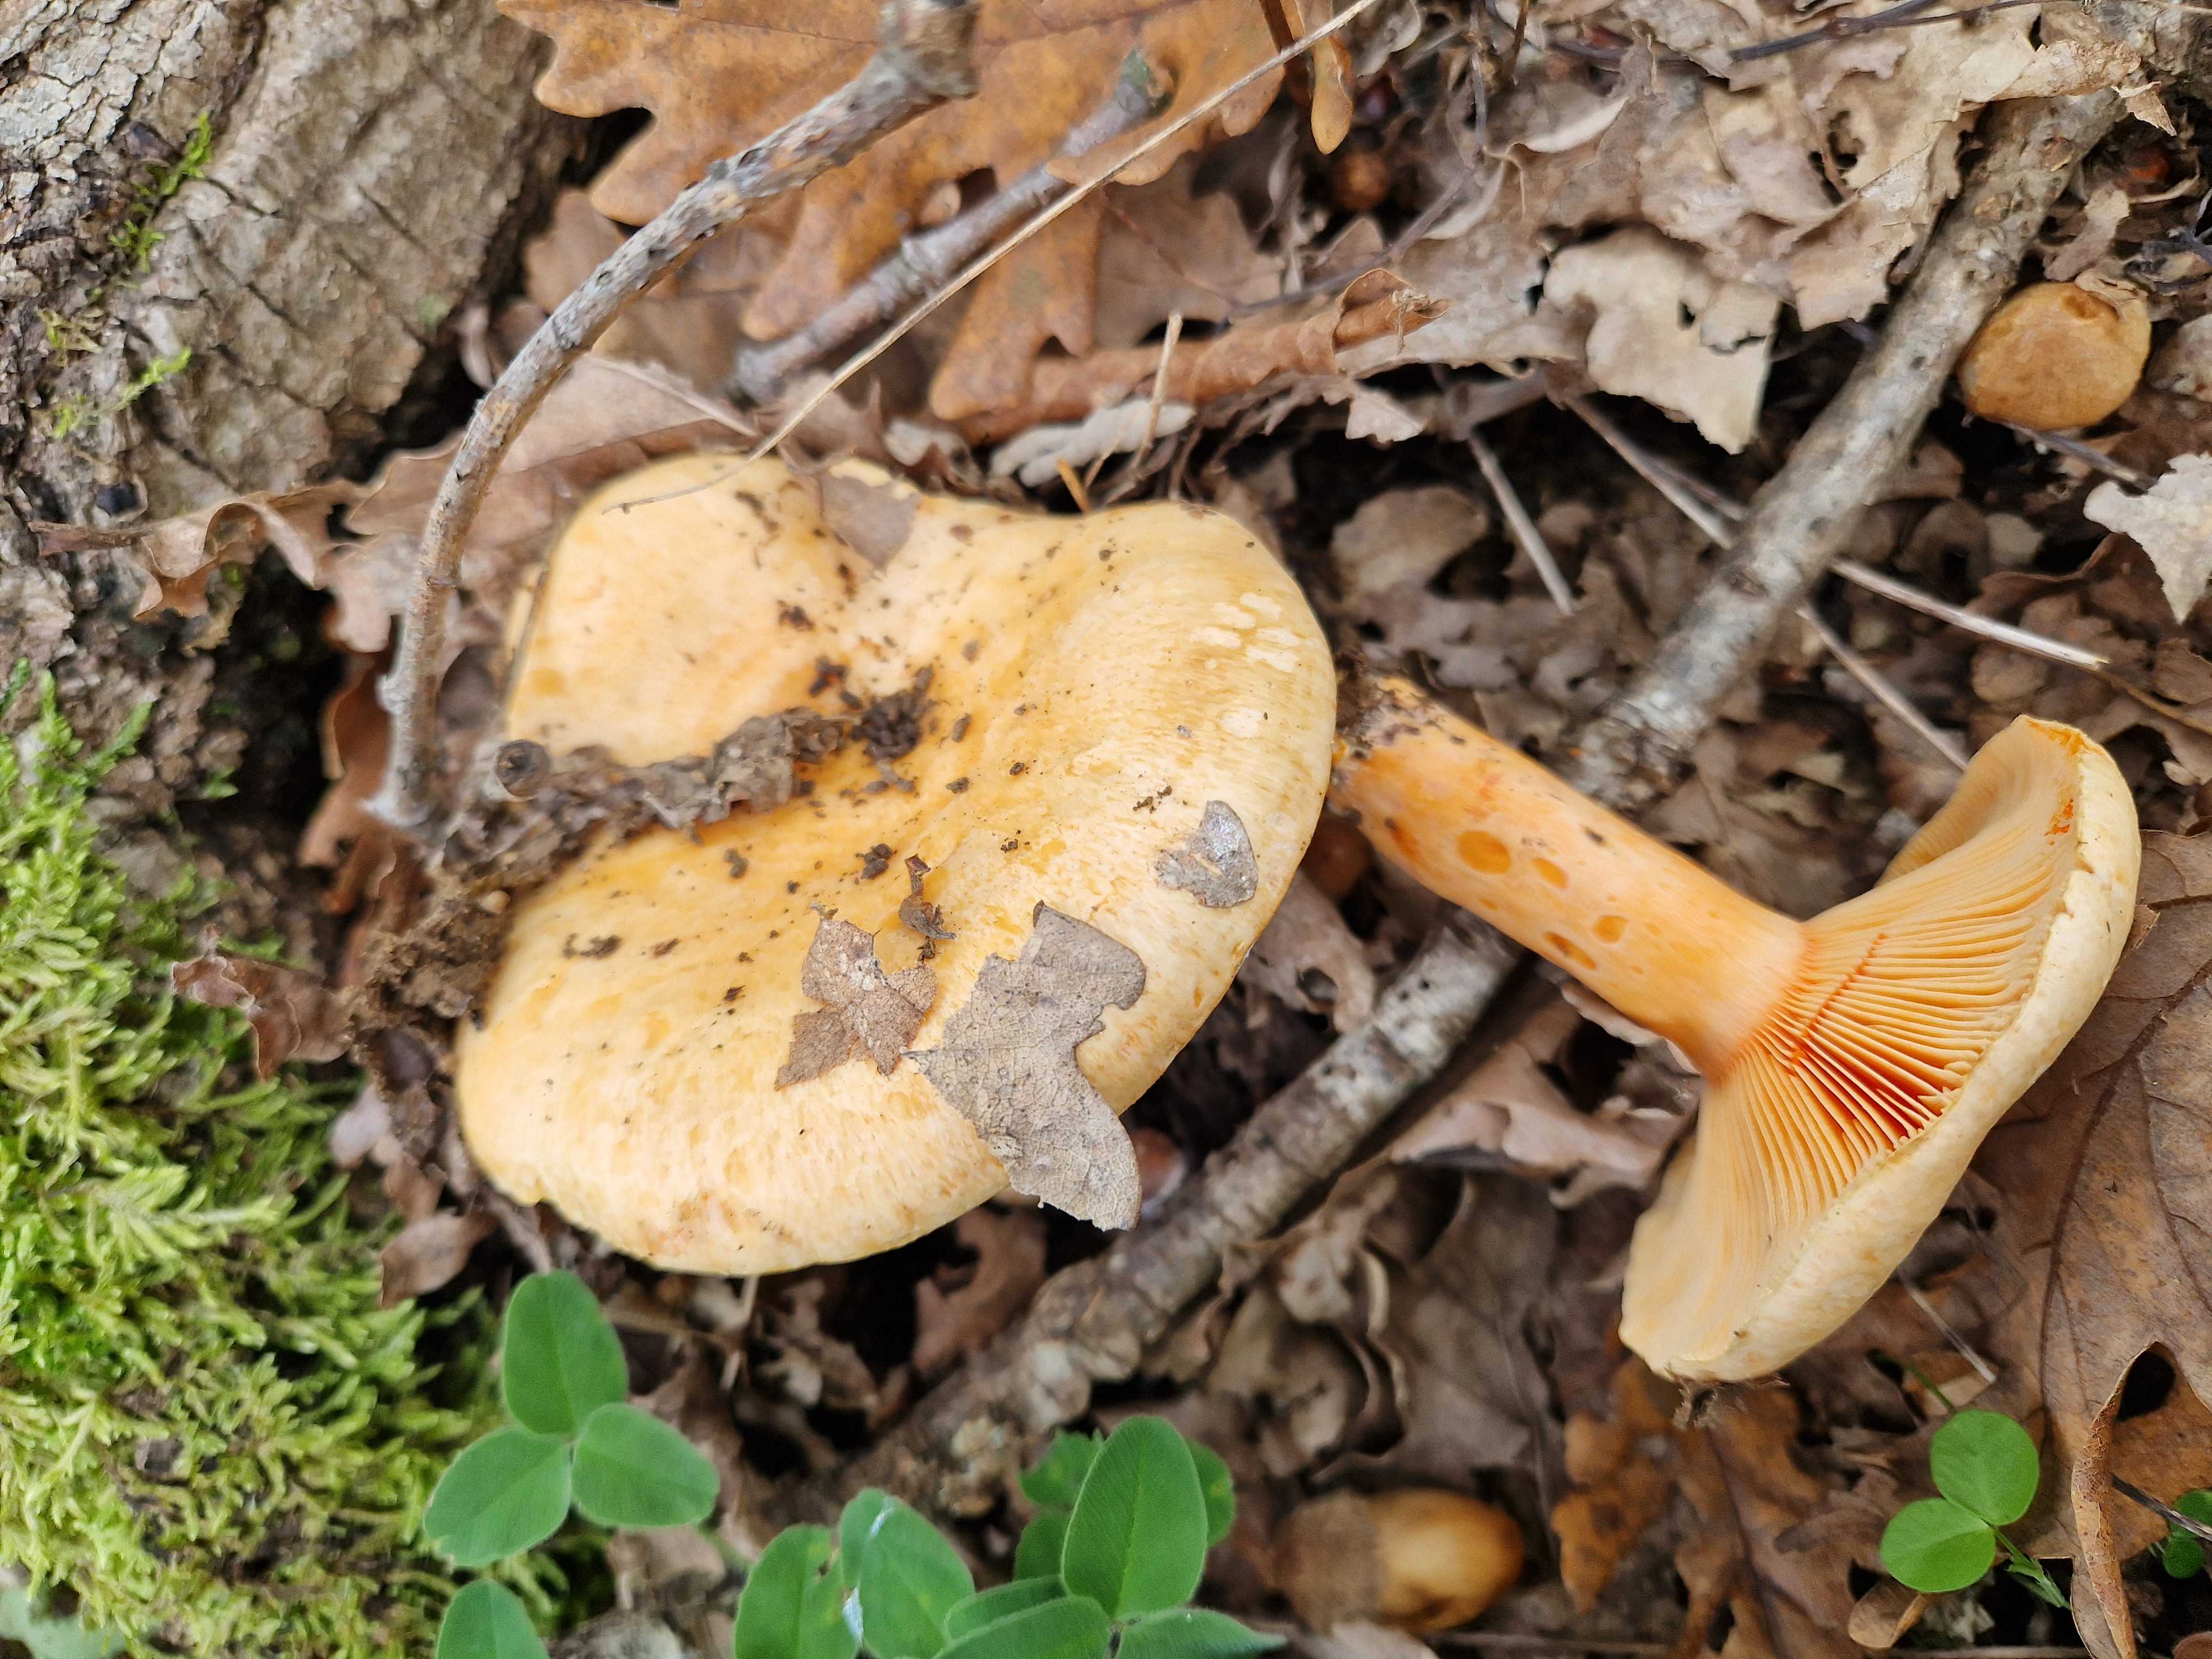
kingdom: Fungi
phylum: Basidiomycota
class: Agaricomycetes
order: Russulales
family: Russulaceae
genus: Lactarius
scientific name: Lactarius salmonicolor
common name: laksefarvet mælkehat
